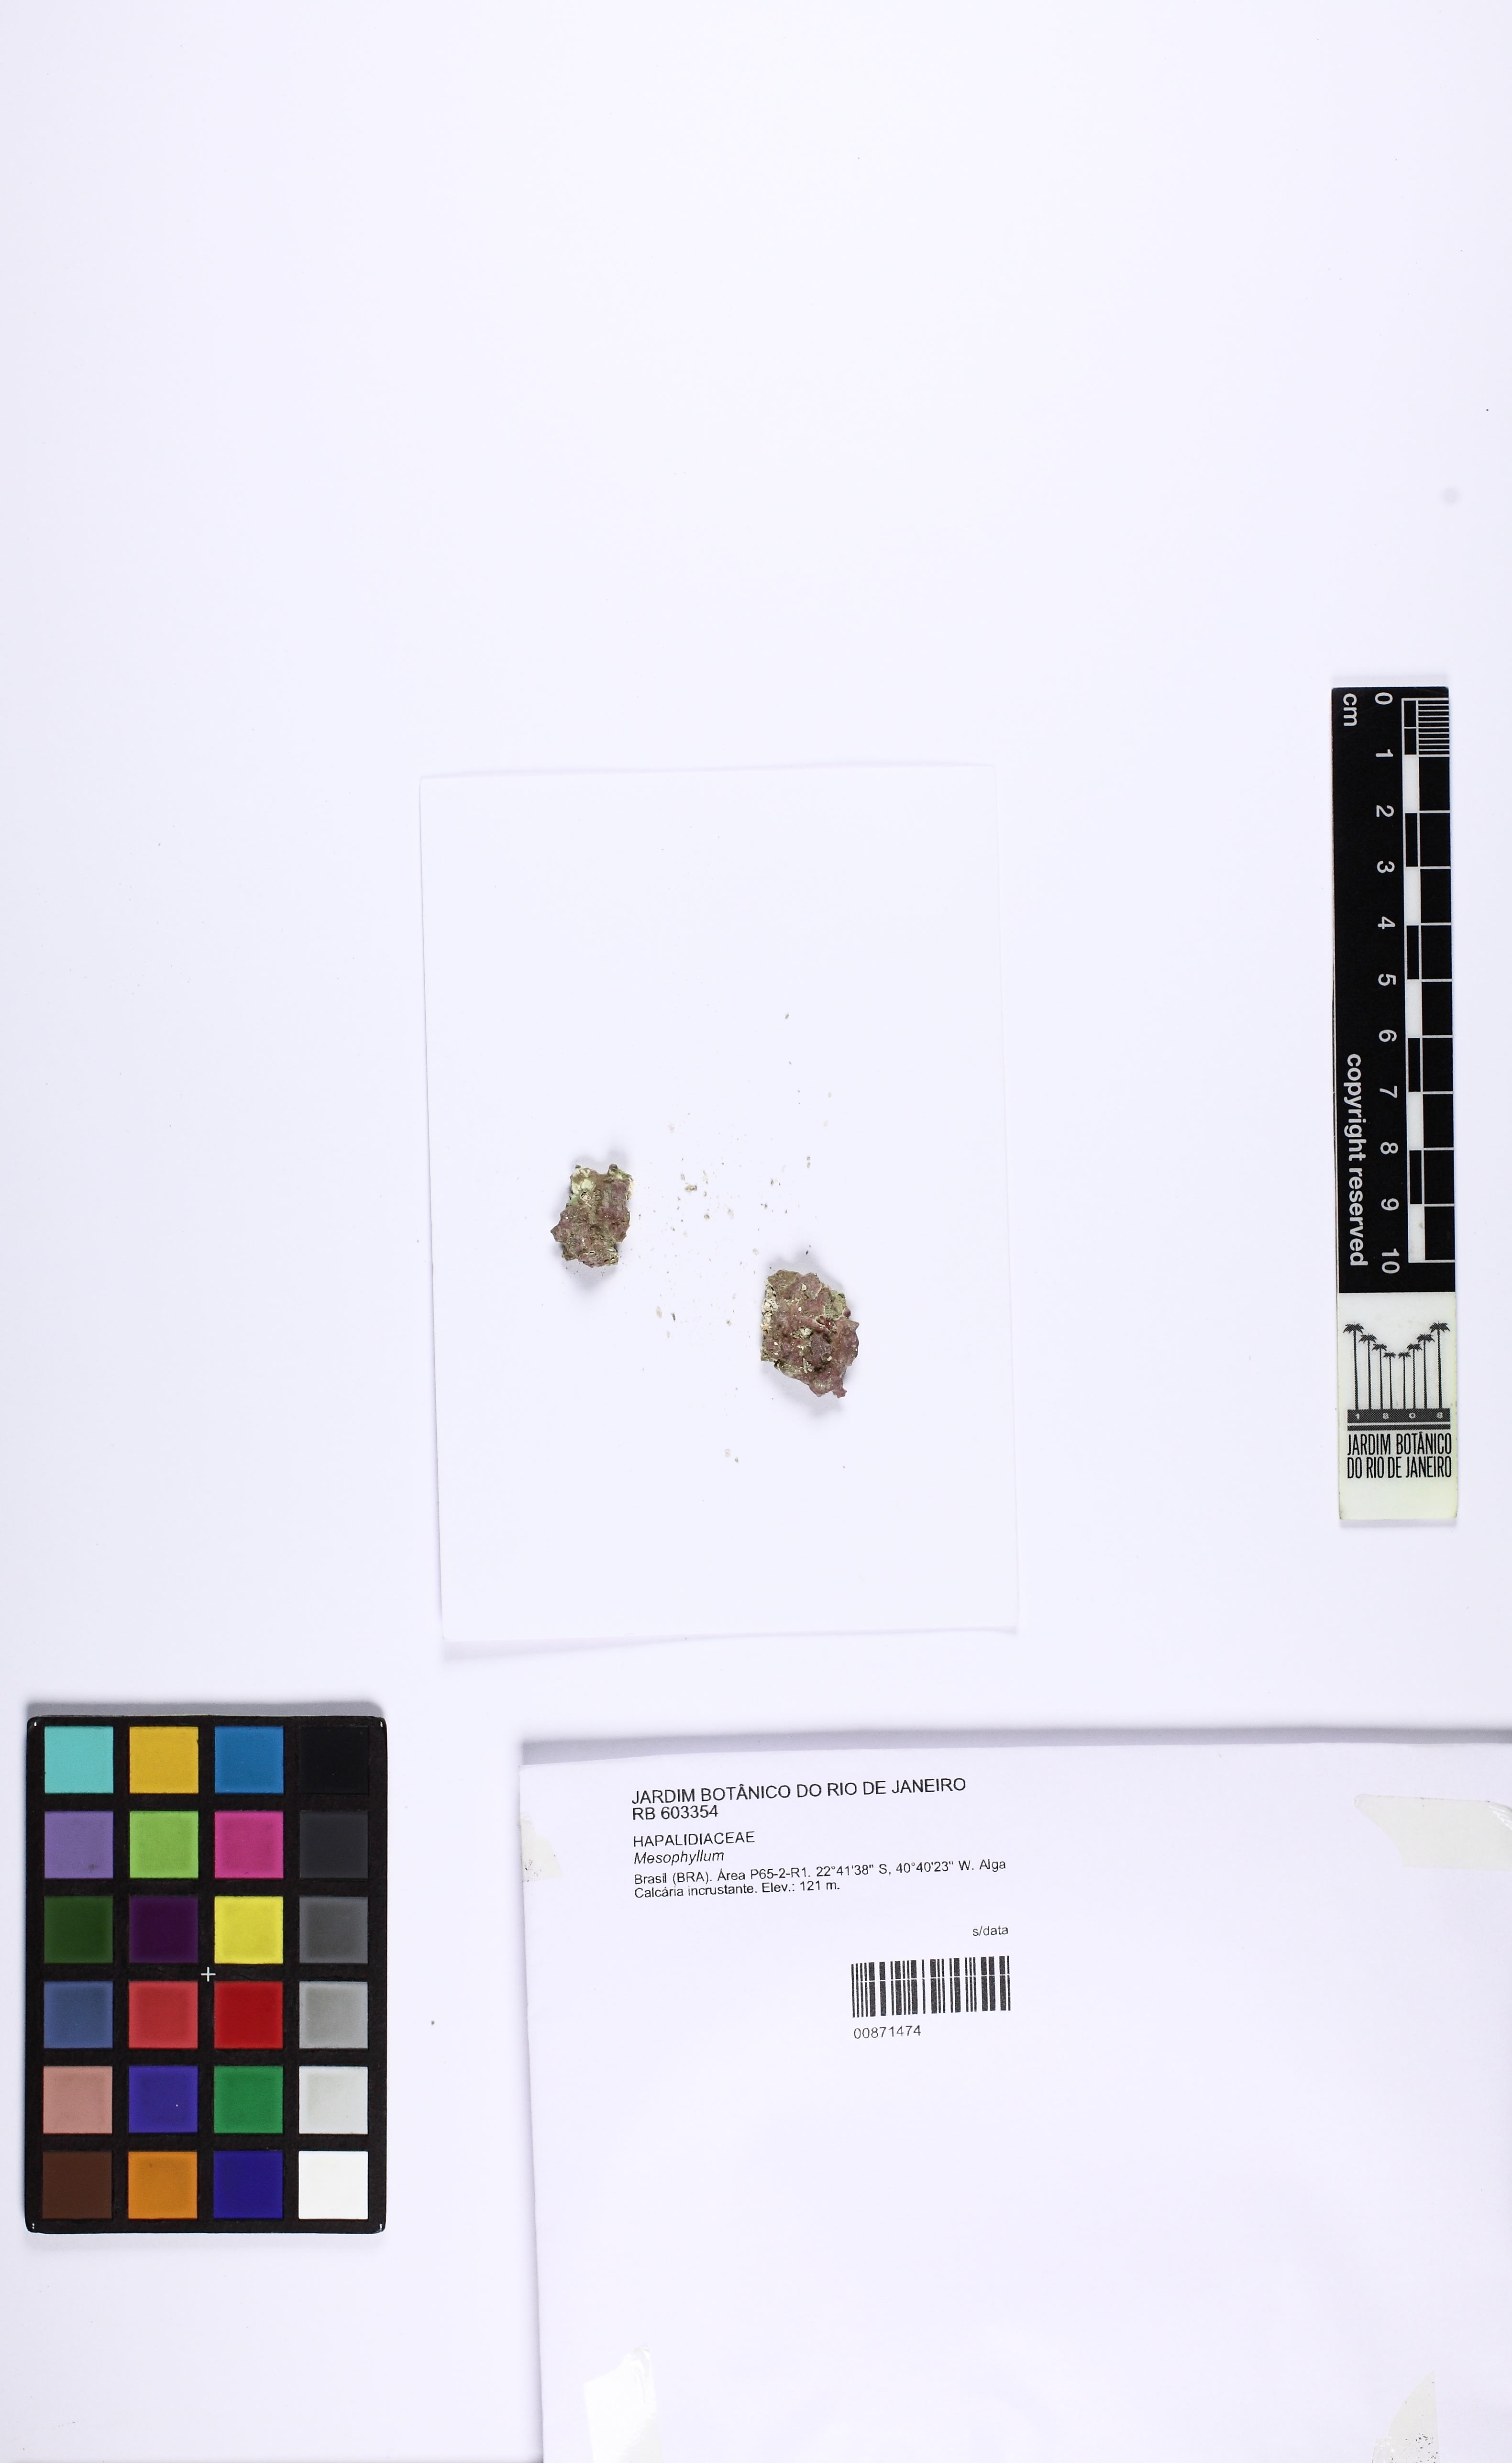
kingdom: Plantae
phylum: Rhodophyta
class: Florideophyceae
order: Corallinales
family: Mesophyllumaceae
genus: Mesophyllum
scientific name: Mesophyllum
